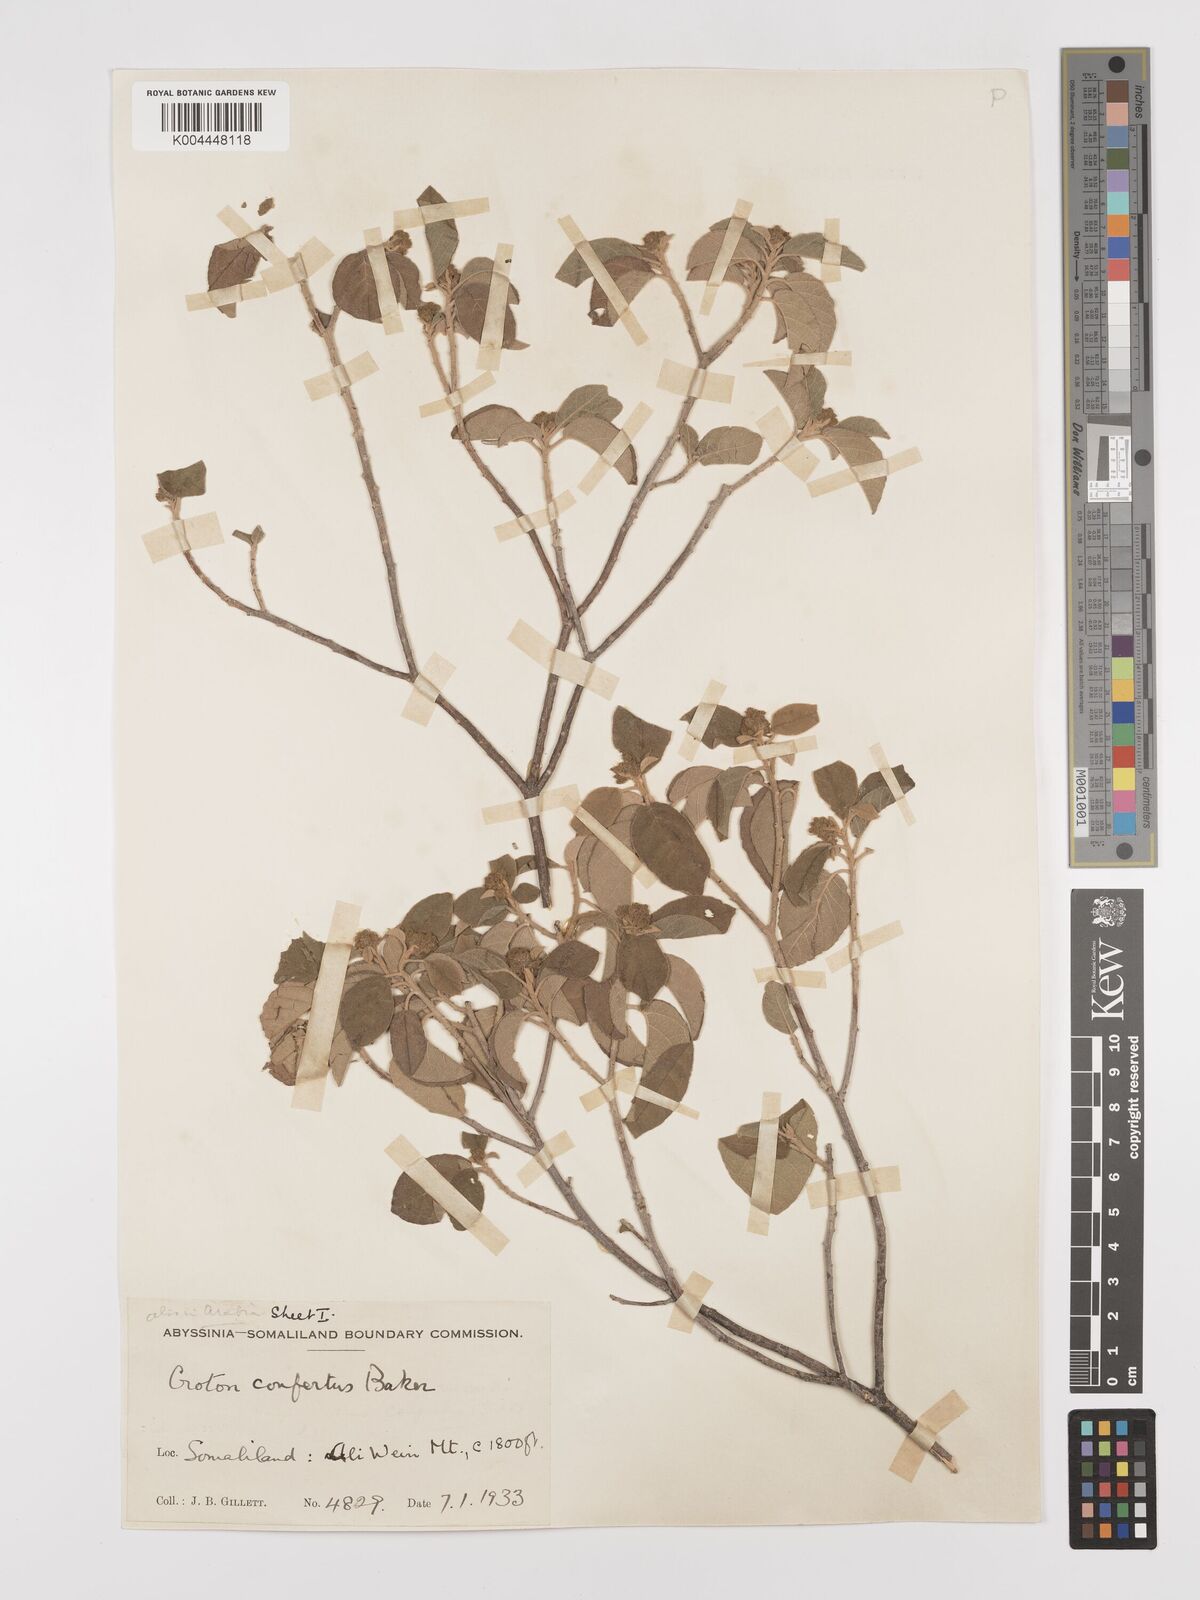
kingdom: Plantae
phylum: Tracheophyta
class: Magnoliopsida
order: Malpighiales
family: Euphorbiaceae
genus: Croton
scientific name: Croton confertus
